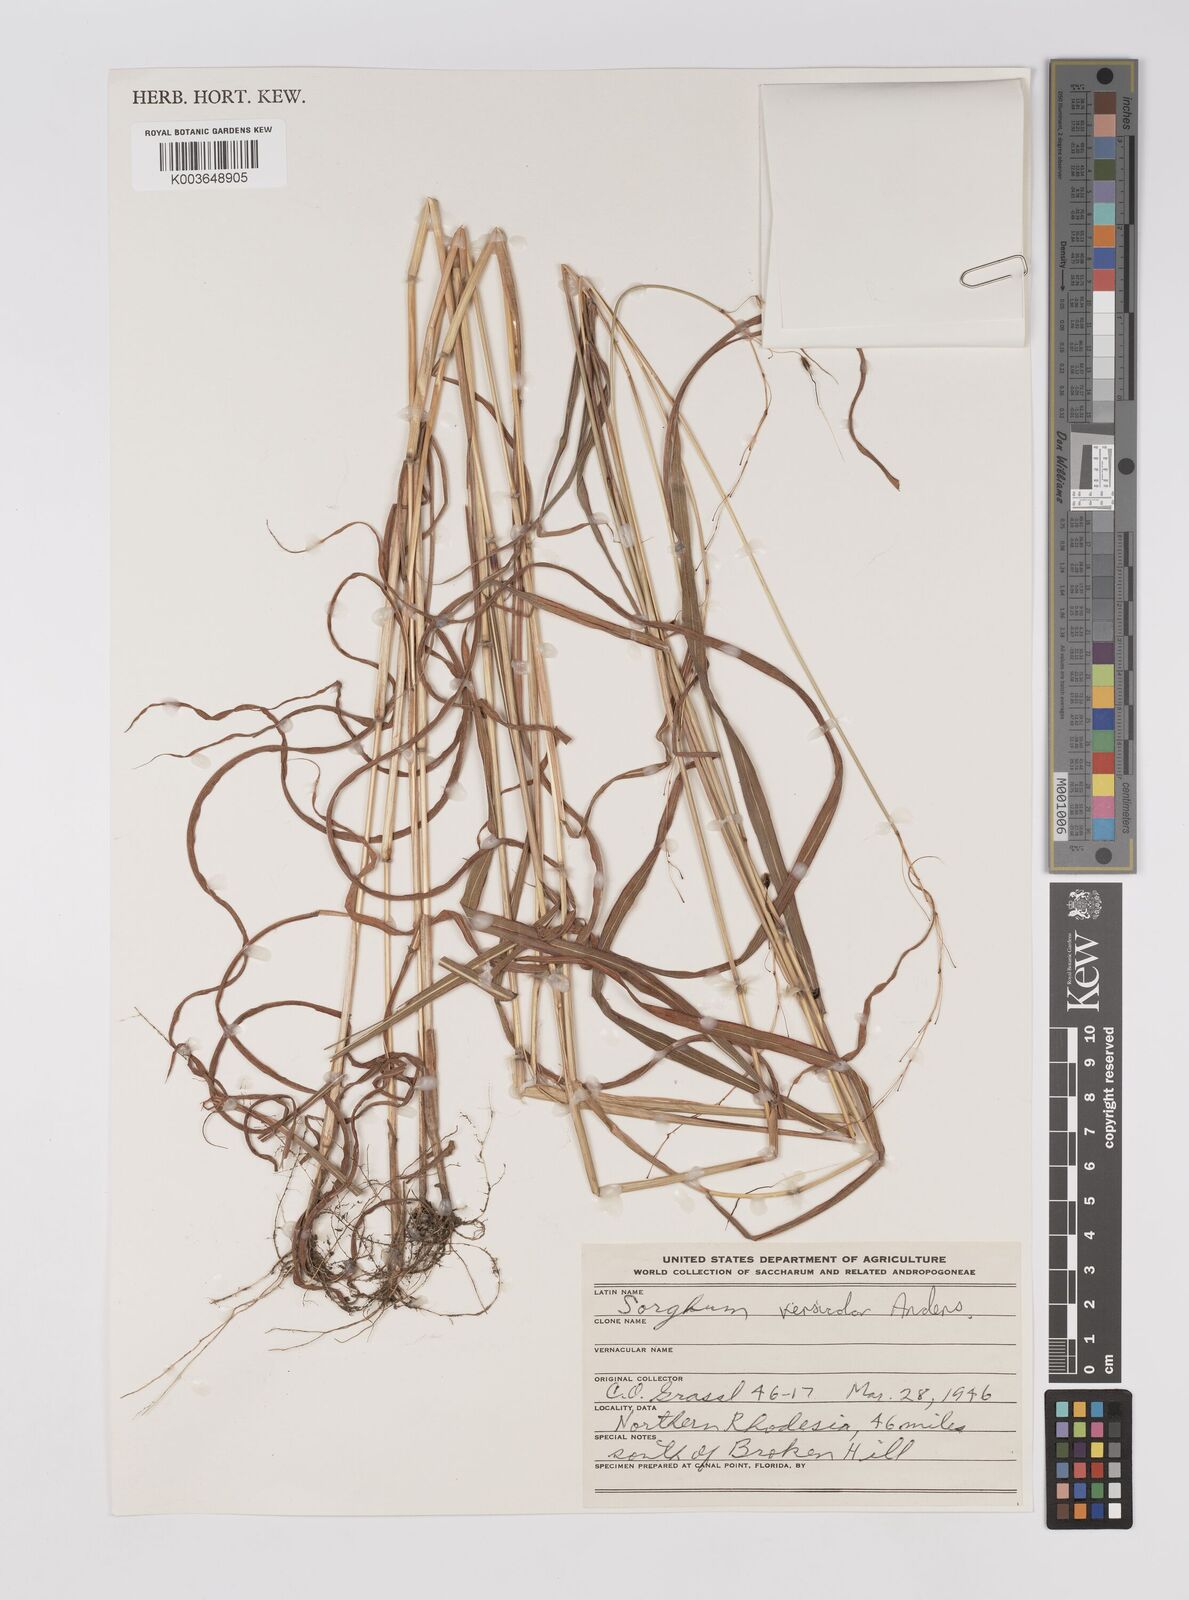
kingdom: Plantae
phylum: Tracheophyta
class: Liliopsida
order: Poales
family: Poaceae
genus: Sarga
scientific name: Sarga versicolor
